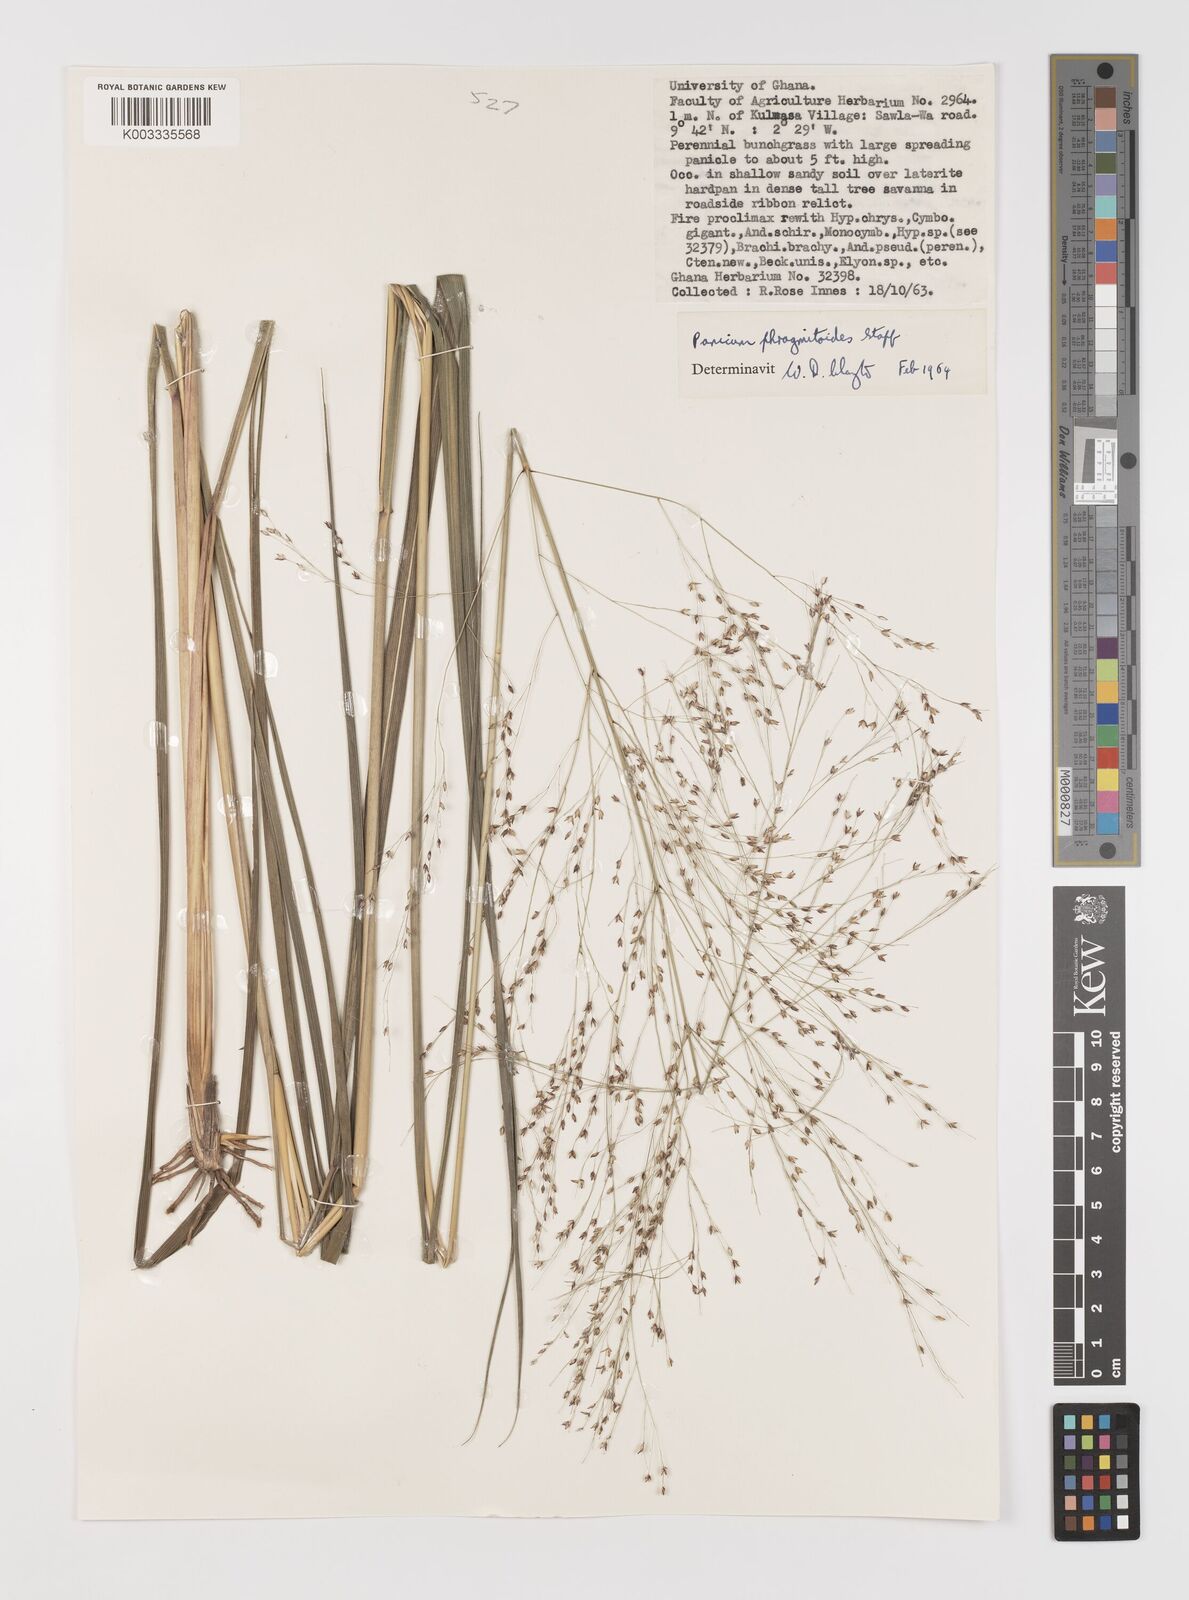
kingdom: Plantae
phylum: Tracheophyta
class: Liliopsida
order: Poales
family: Poaceae
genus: Panicum
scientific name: Panicum phragmitoides
